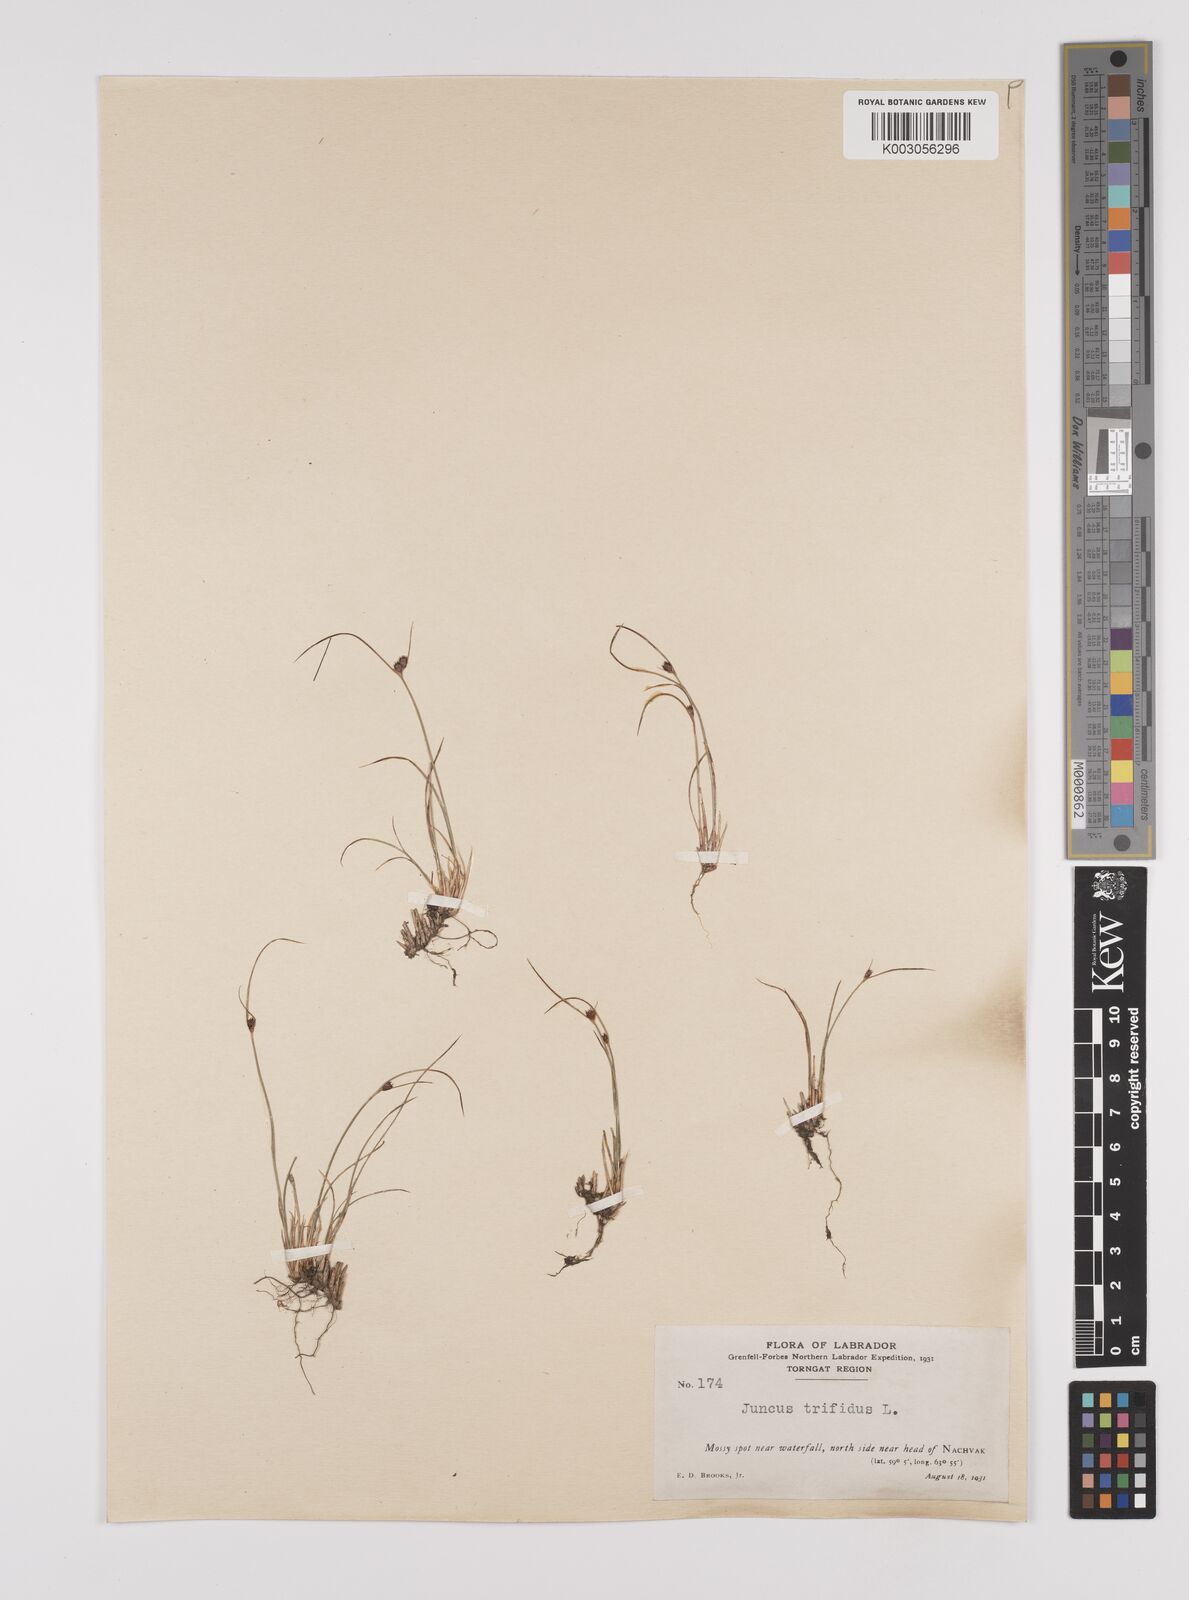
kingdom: Plantae
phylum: Tracheophyta
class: Liliopsida
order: Poales
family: Juncaceae
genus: Oreojuncus
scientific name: Oreojuncus trifidus
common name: Highland rush
